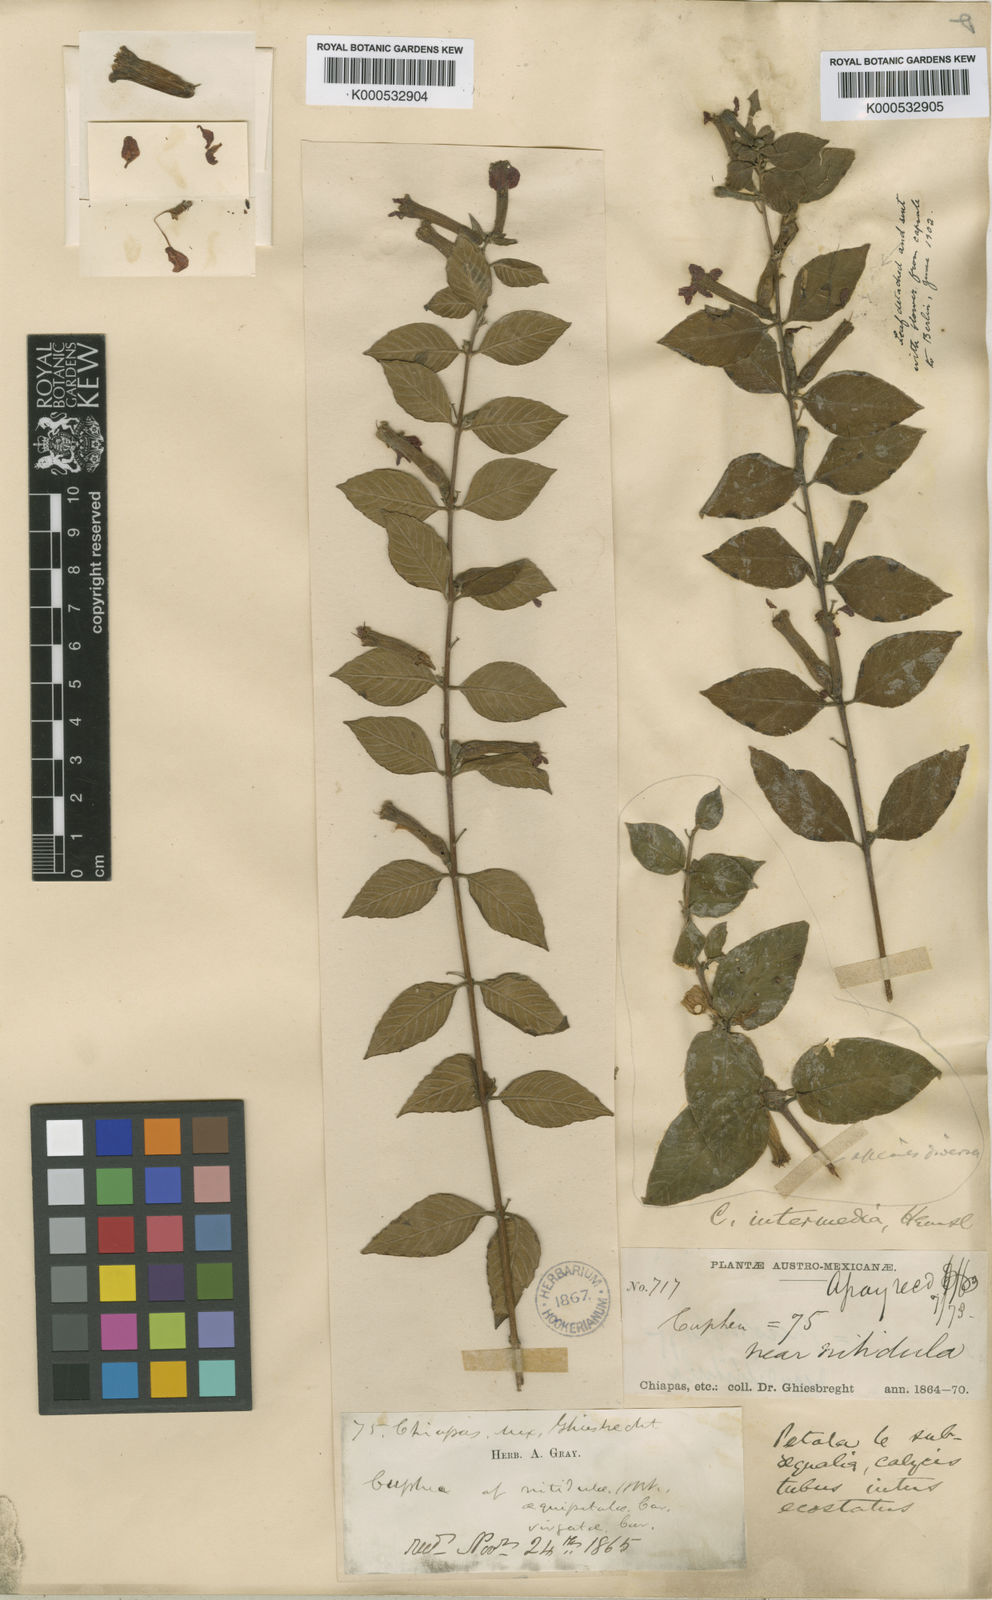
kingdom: Plantae
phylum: Tracheophyta
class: Magnoliopsida
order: Myrtales
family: Lythraceae
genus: Cuphea
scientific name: Cuphea intermedia
